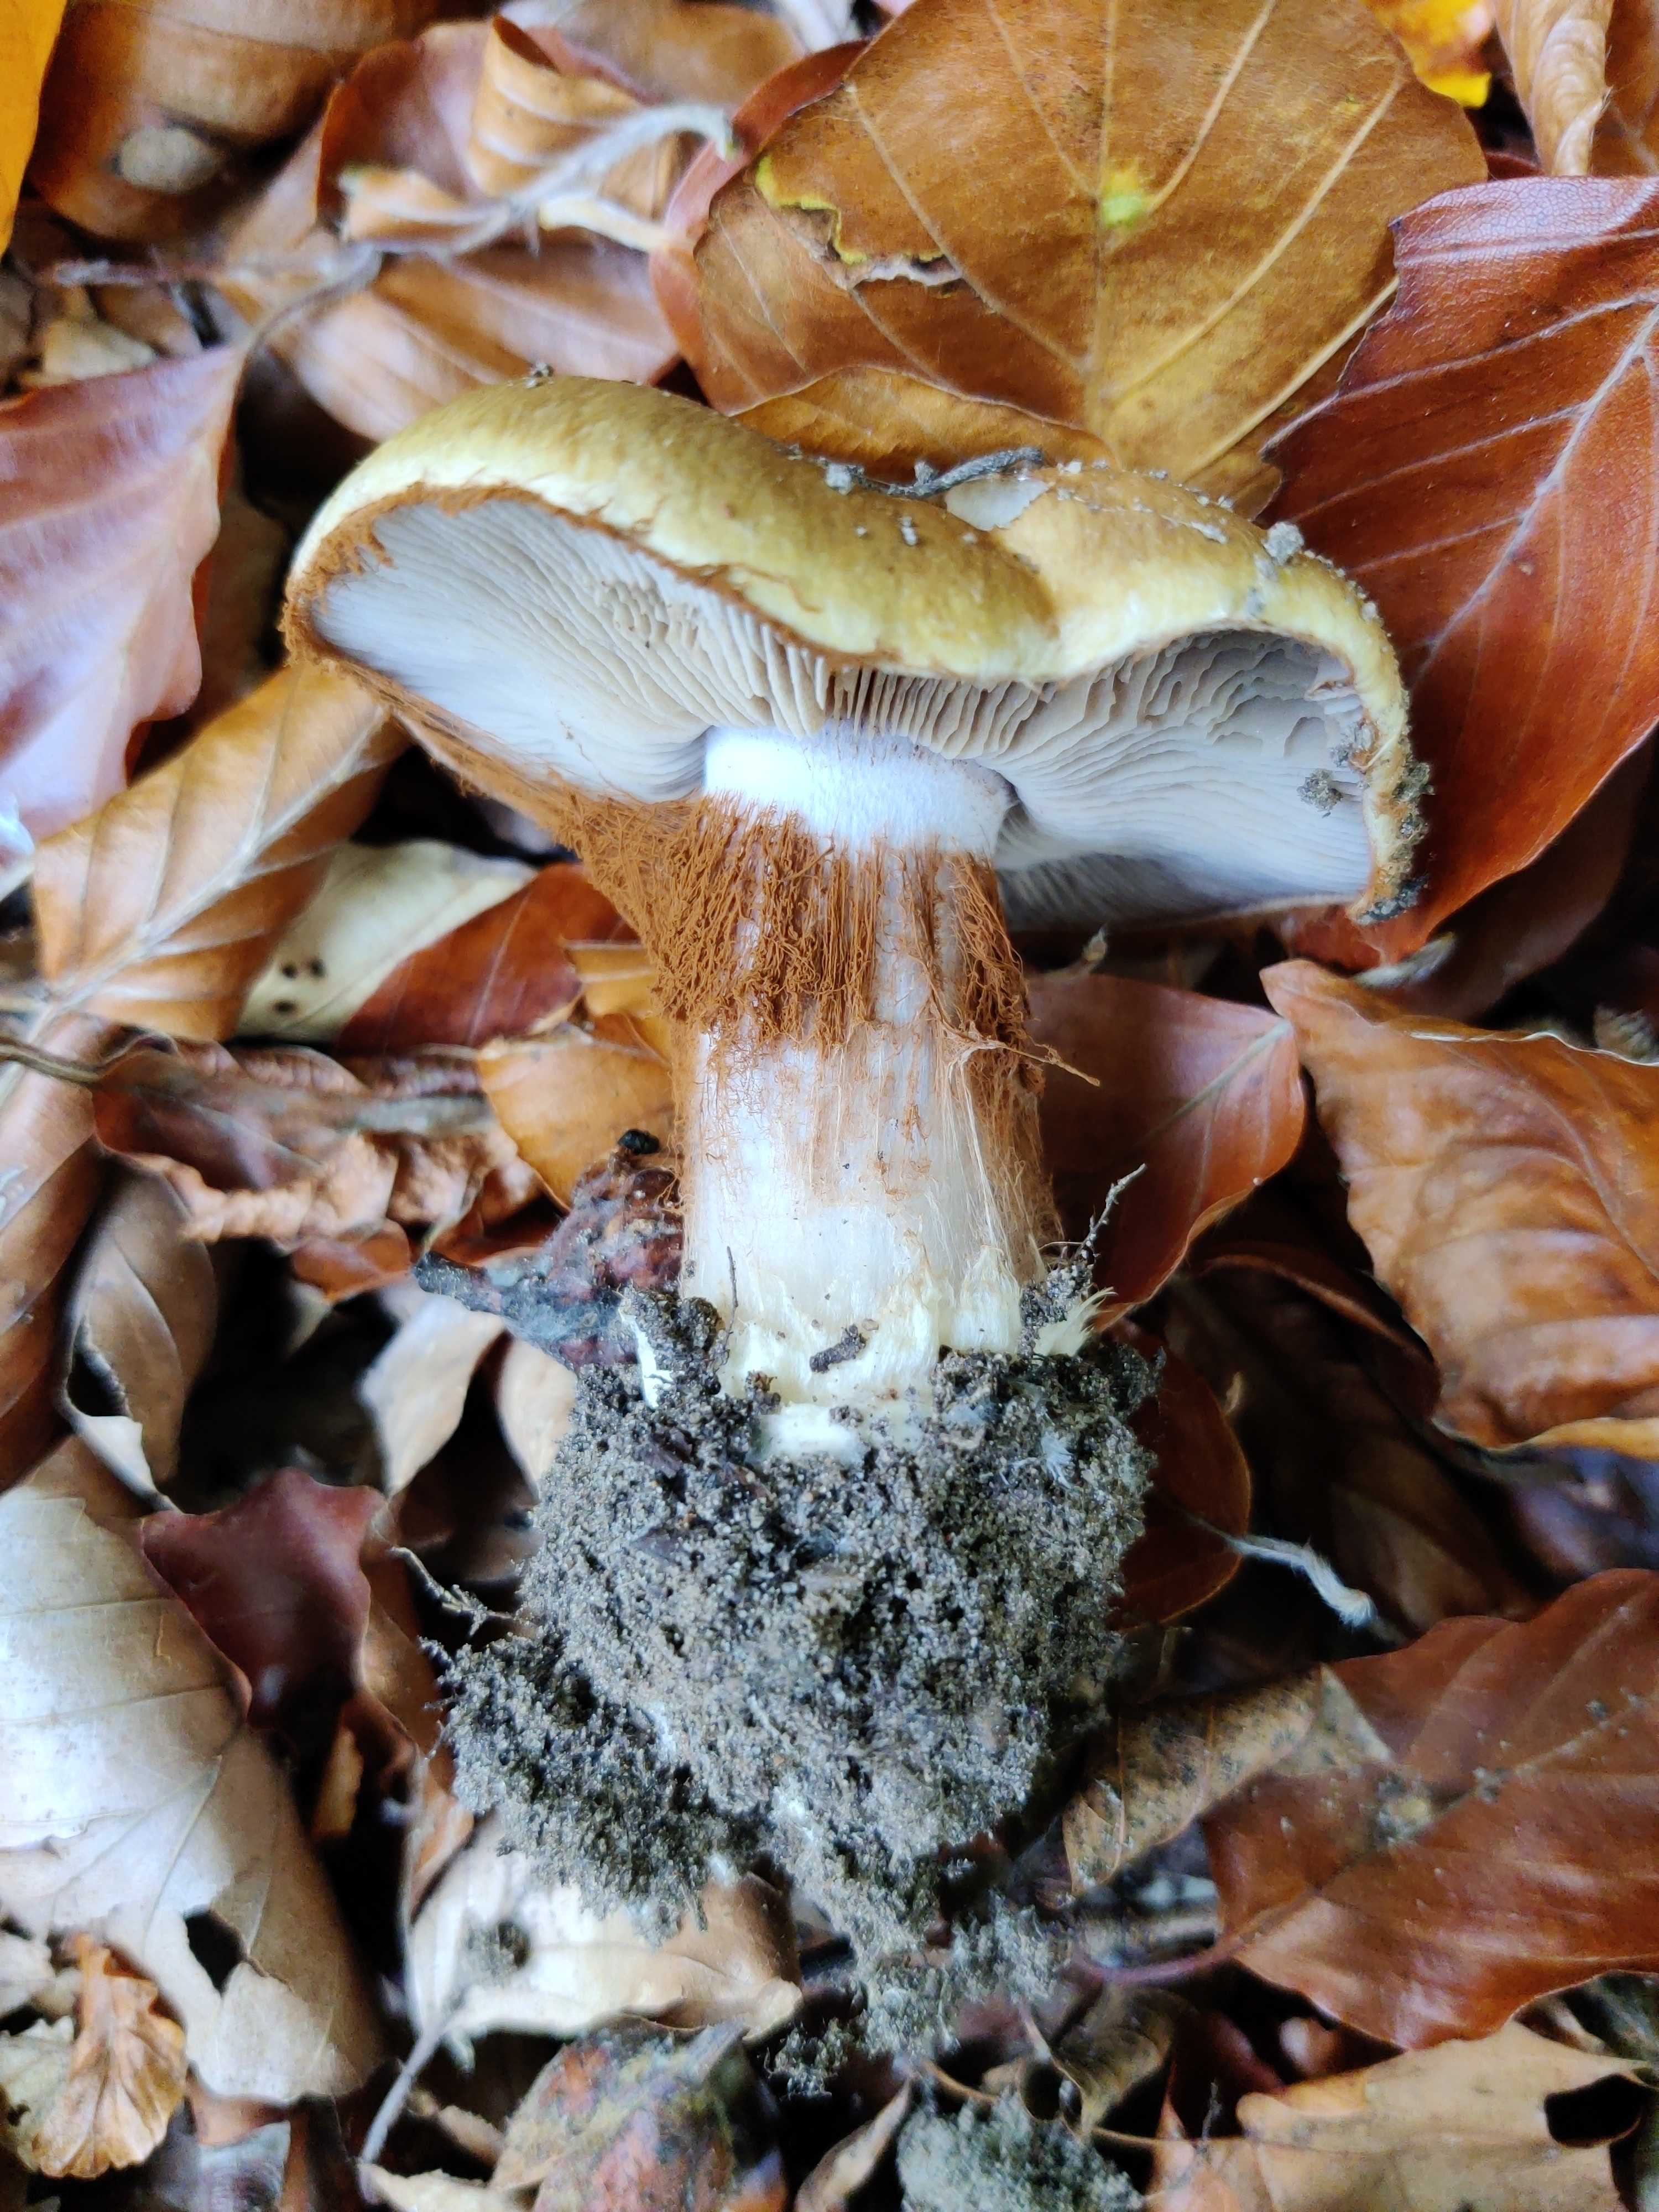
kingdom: Fungi
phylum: Basidiomycota
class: Agaricomycetes
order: Agaricales
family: Cortinariaceae
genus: Cortinarius
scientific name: Cortinarius anserinus
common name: bøge-slørhat
